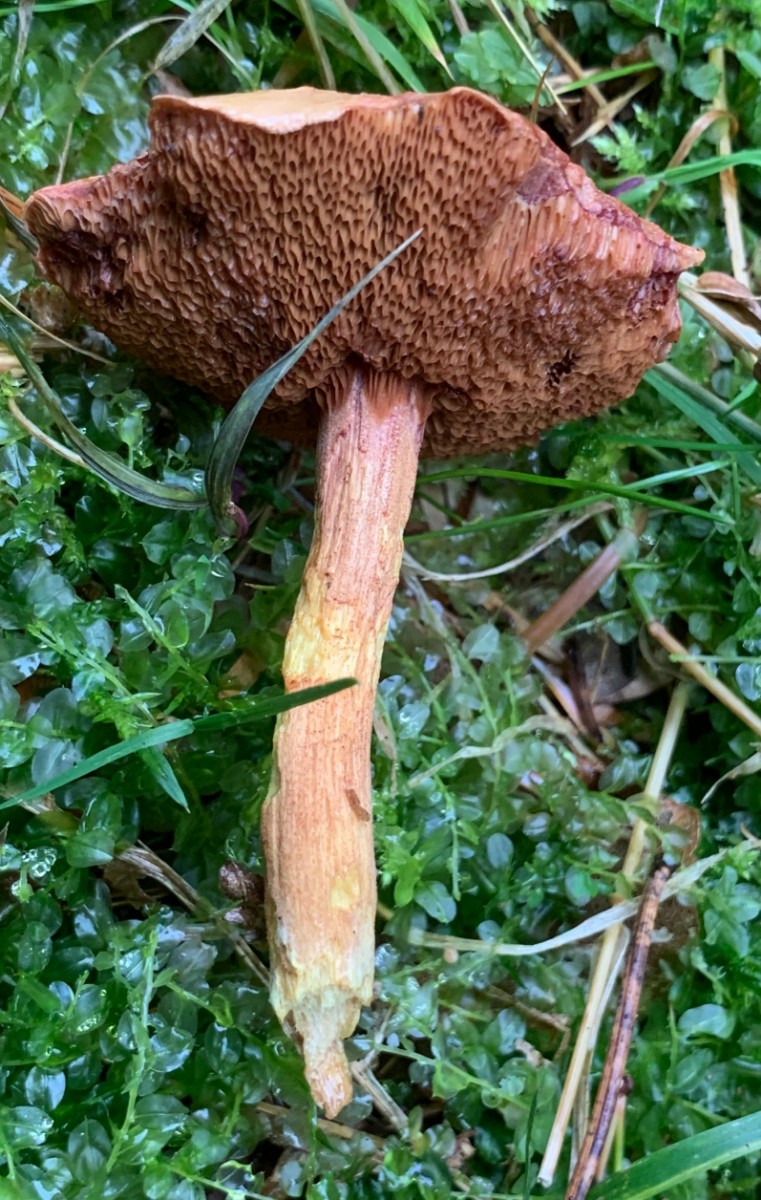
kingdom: Fungi
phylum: Basidiomycota
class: Agaricomycetes
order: Boletales
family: Boletaceae
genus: Chalciporus
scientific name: Chalciporus piperatus
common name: peberrørhat
